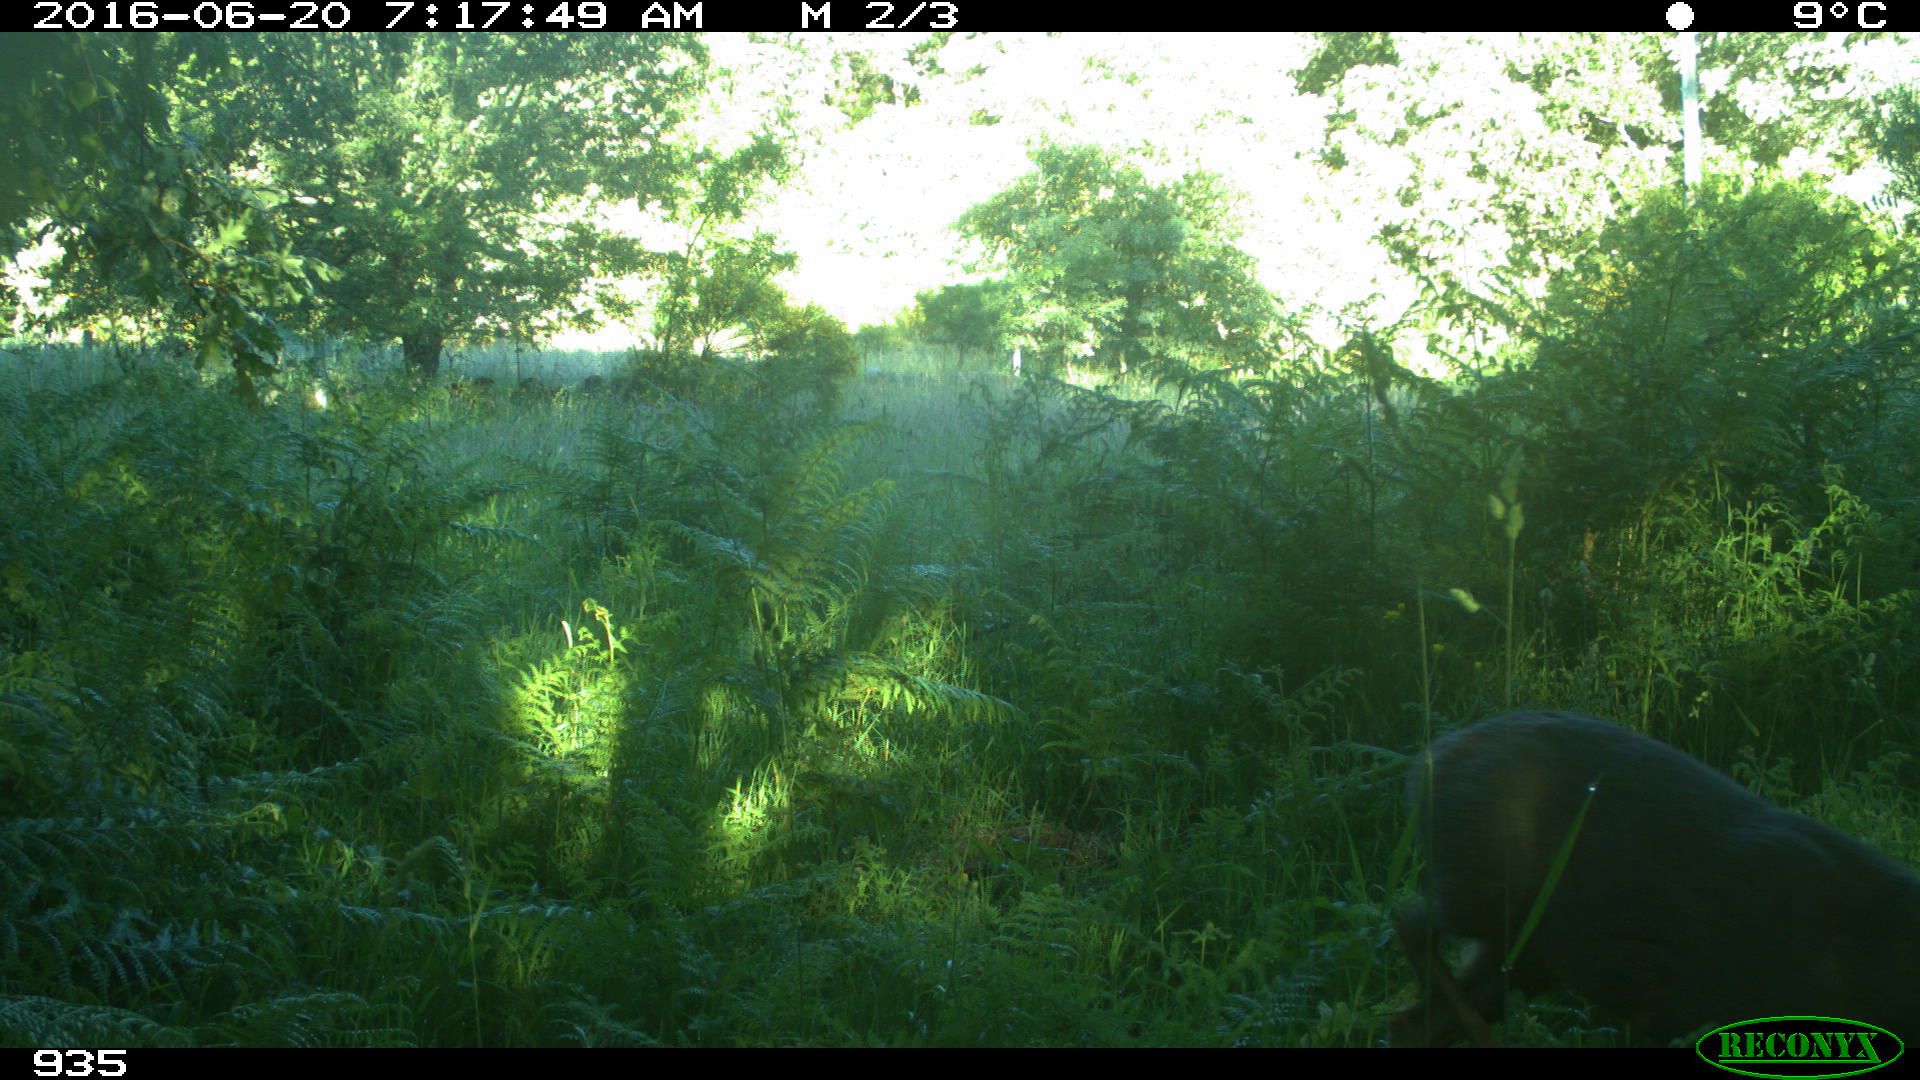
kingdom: Animalia
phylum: Chordata
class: Mammalia
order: Artiodactyla
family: Cervidae
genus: Capreolus
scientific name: Capreolus capreolus
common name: Western roe deer
